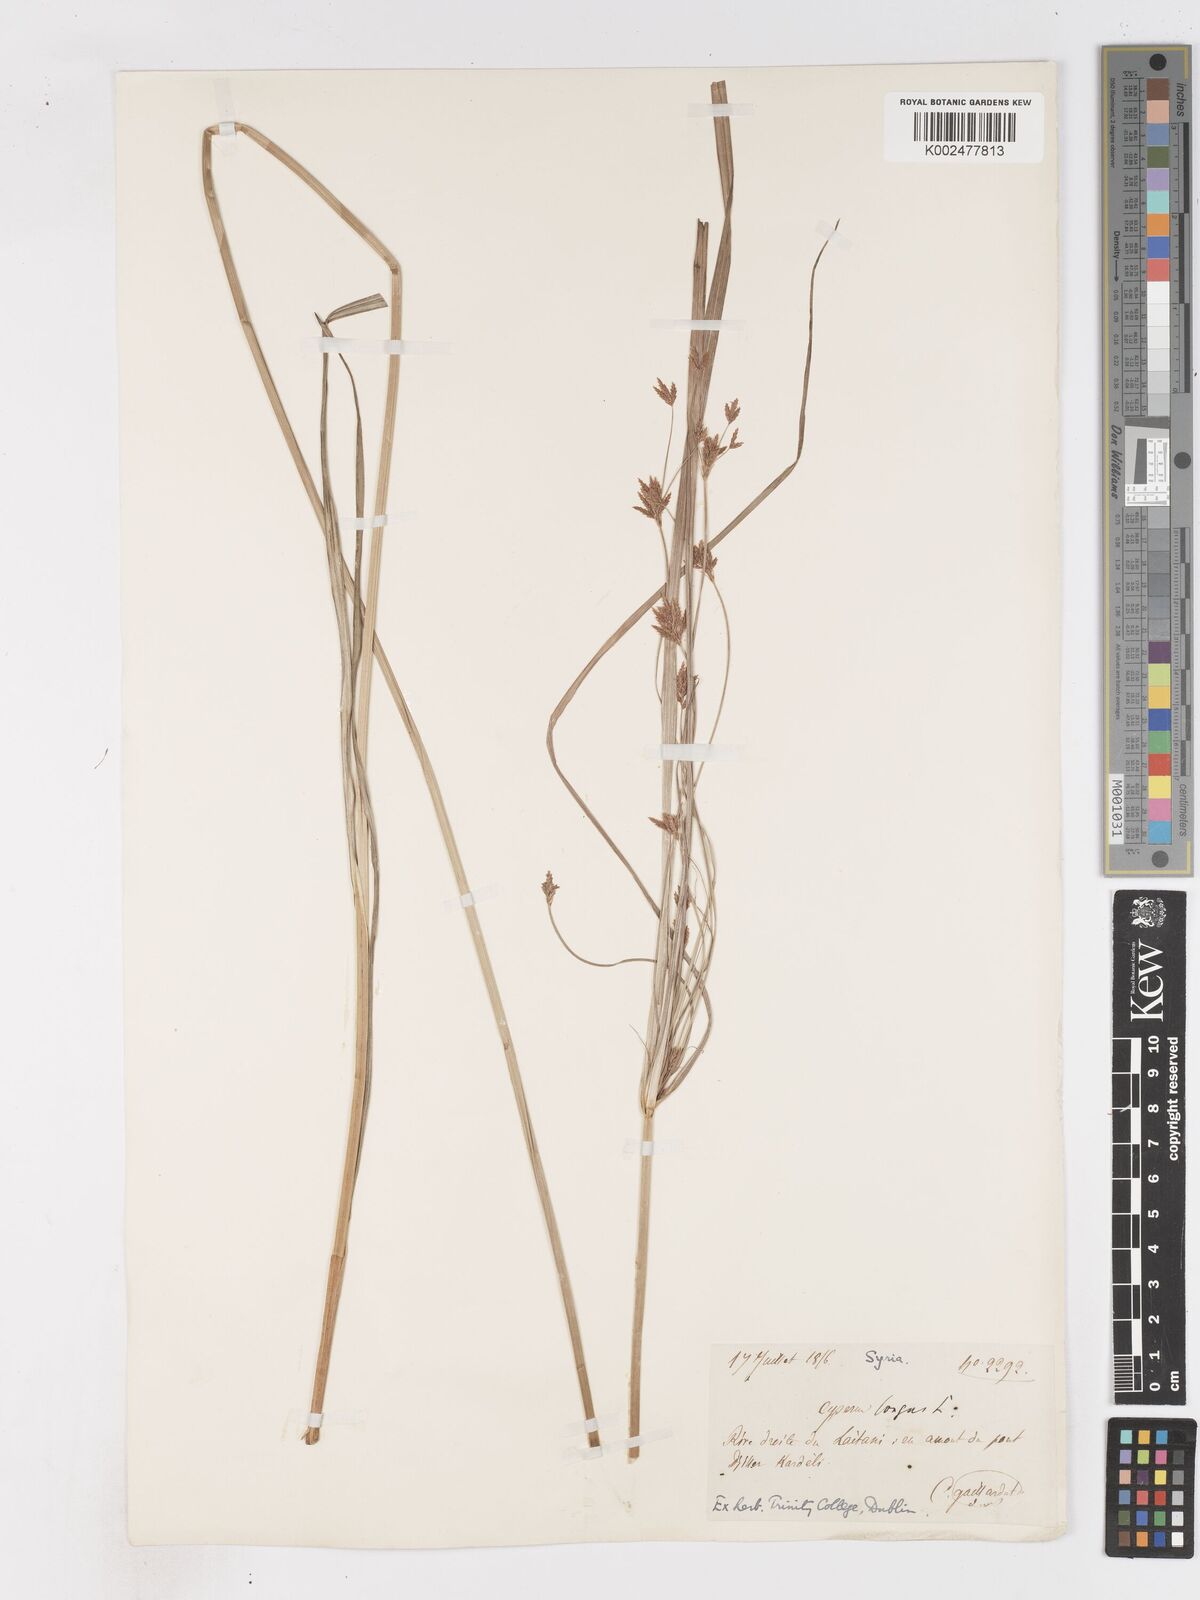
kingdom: Plantae
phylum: Tracheophyta
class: Liliopsida
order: Poales
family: Cyperaceae
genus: Cyperus
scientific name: Cyperus longus
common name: Galingale
